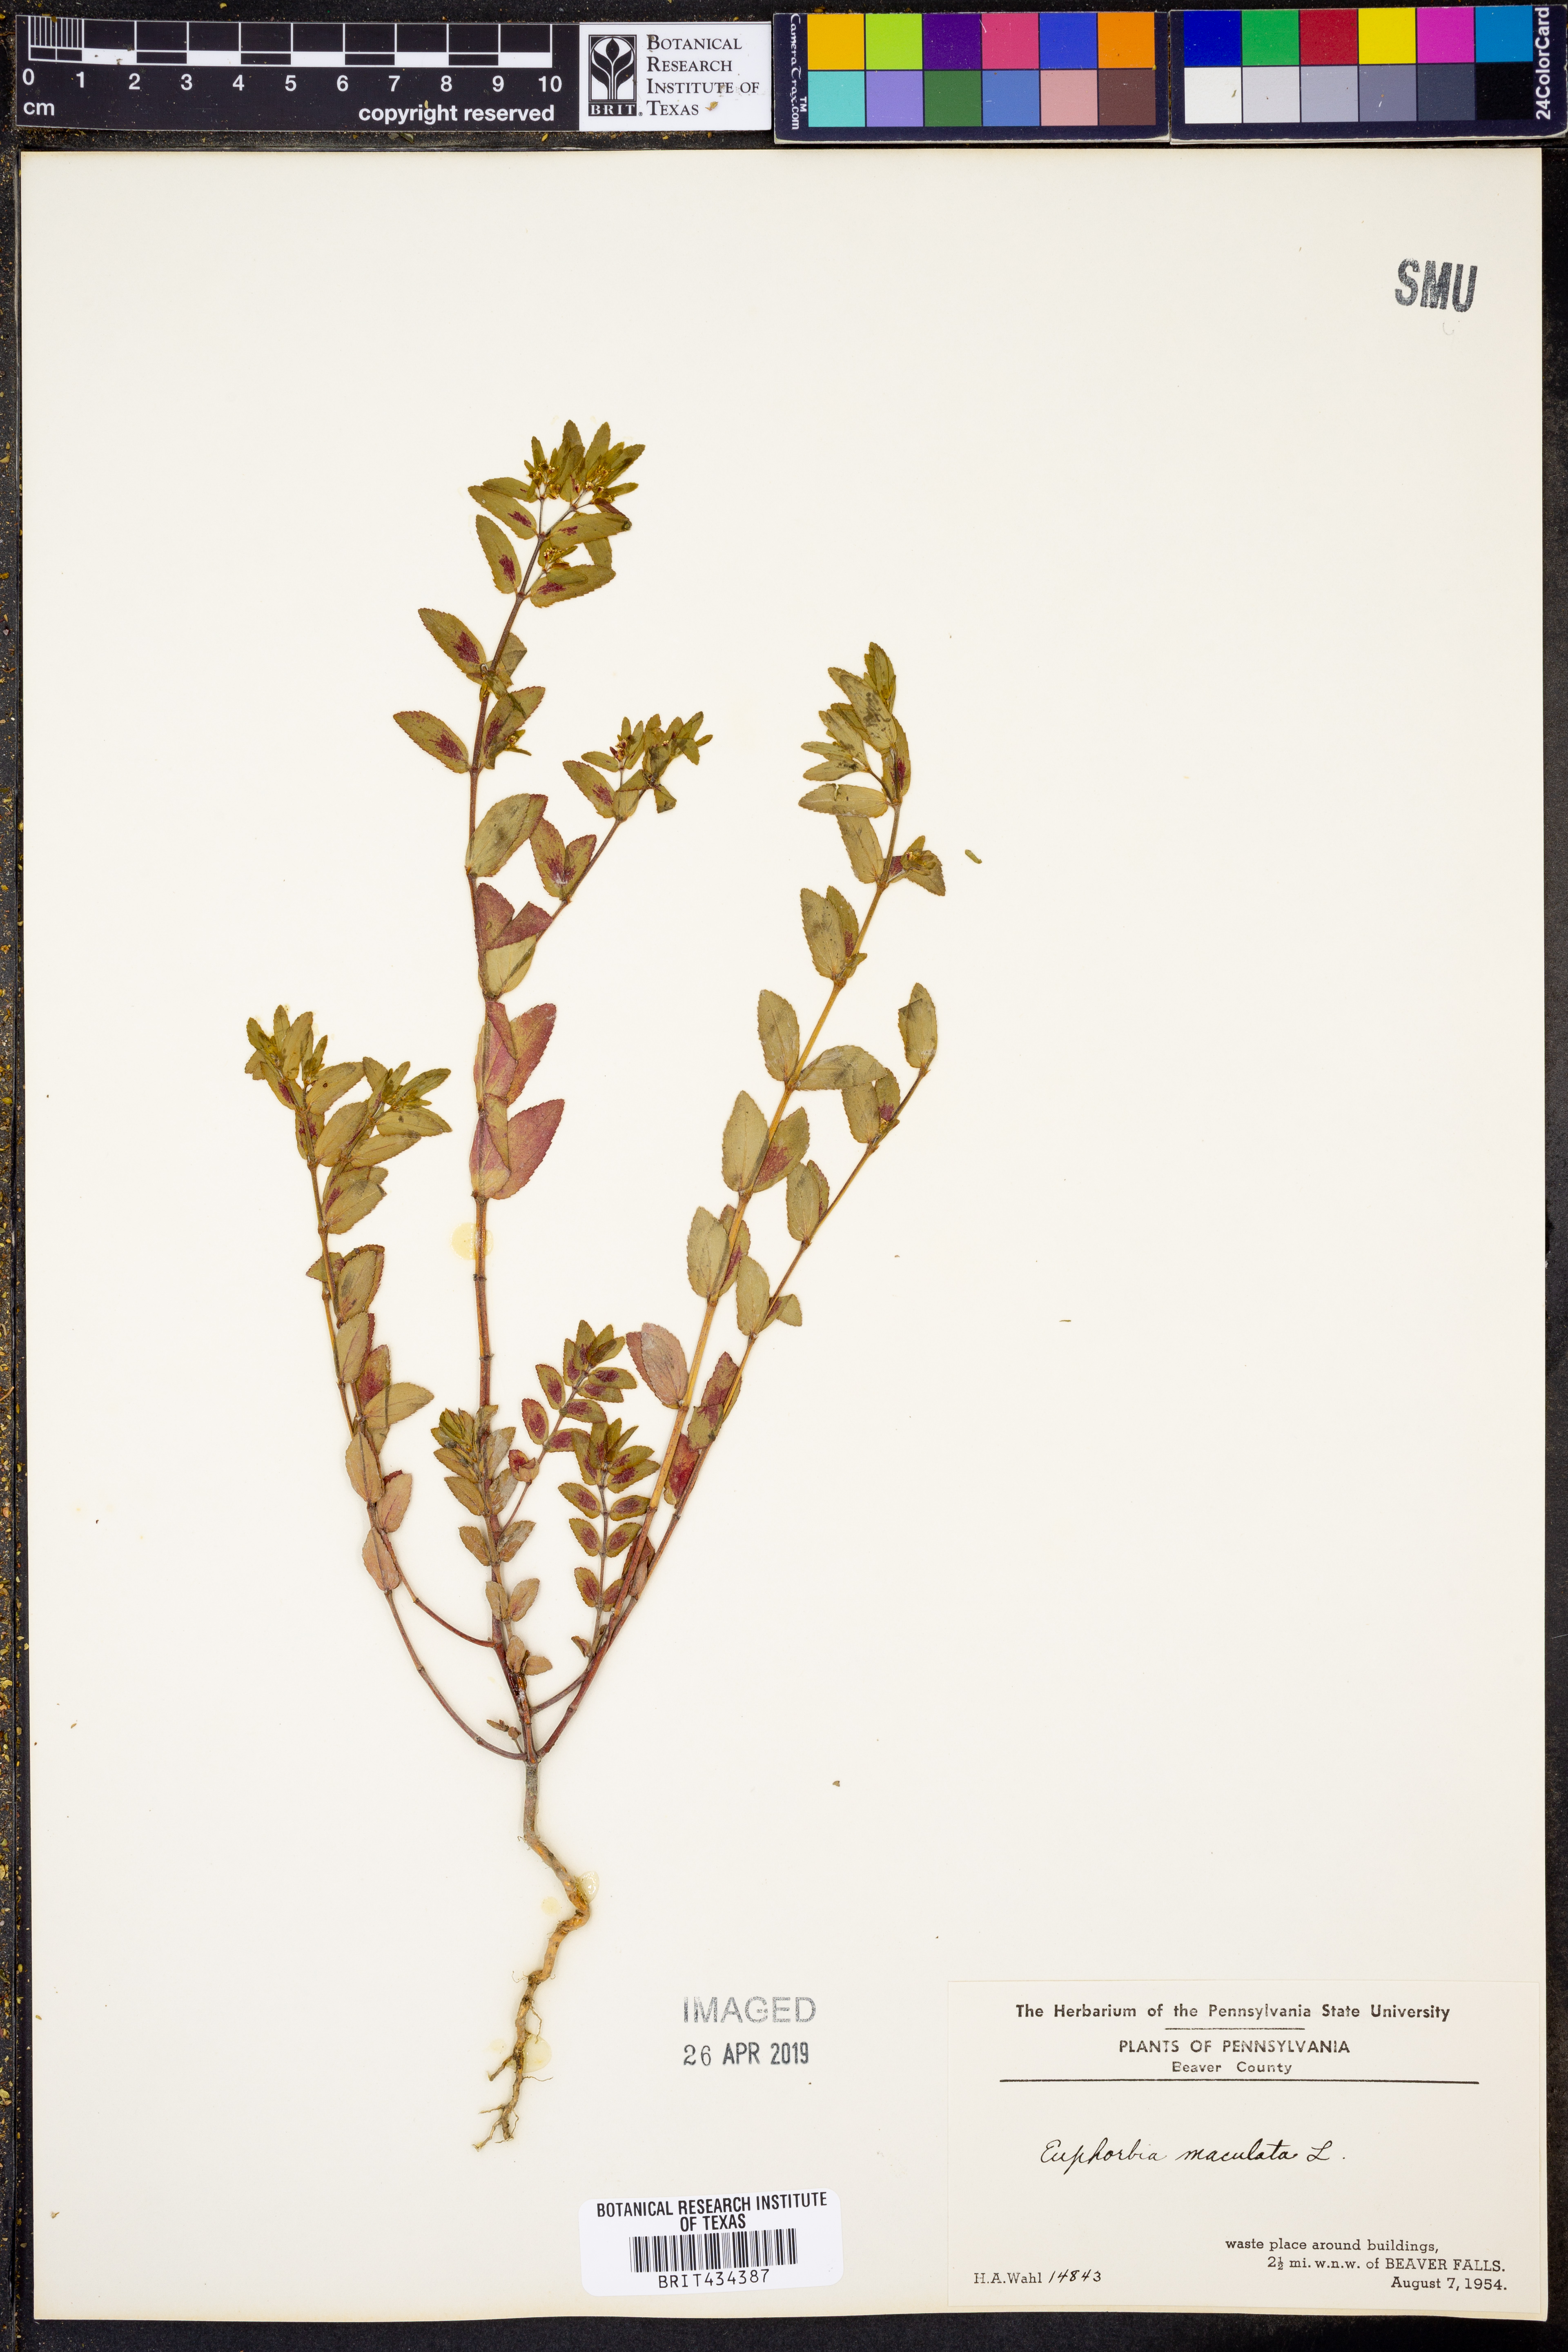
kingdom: Plantae
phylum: Tracheophyta
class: Magnoliopsida
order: Malpighiales
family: Euphorbiaceae
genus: Euphorbia
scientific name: Euphorbia maculata
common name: Spotted spurge
